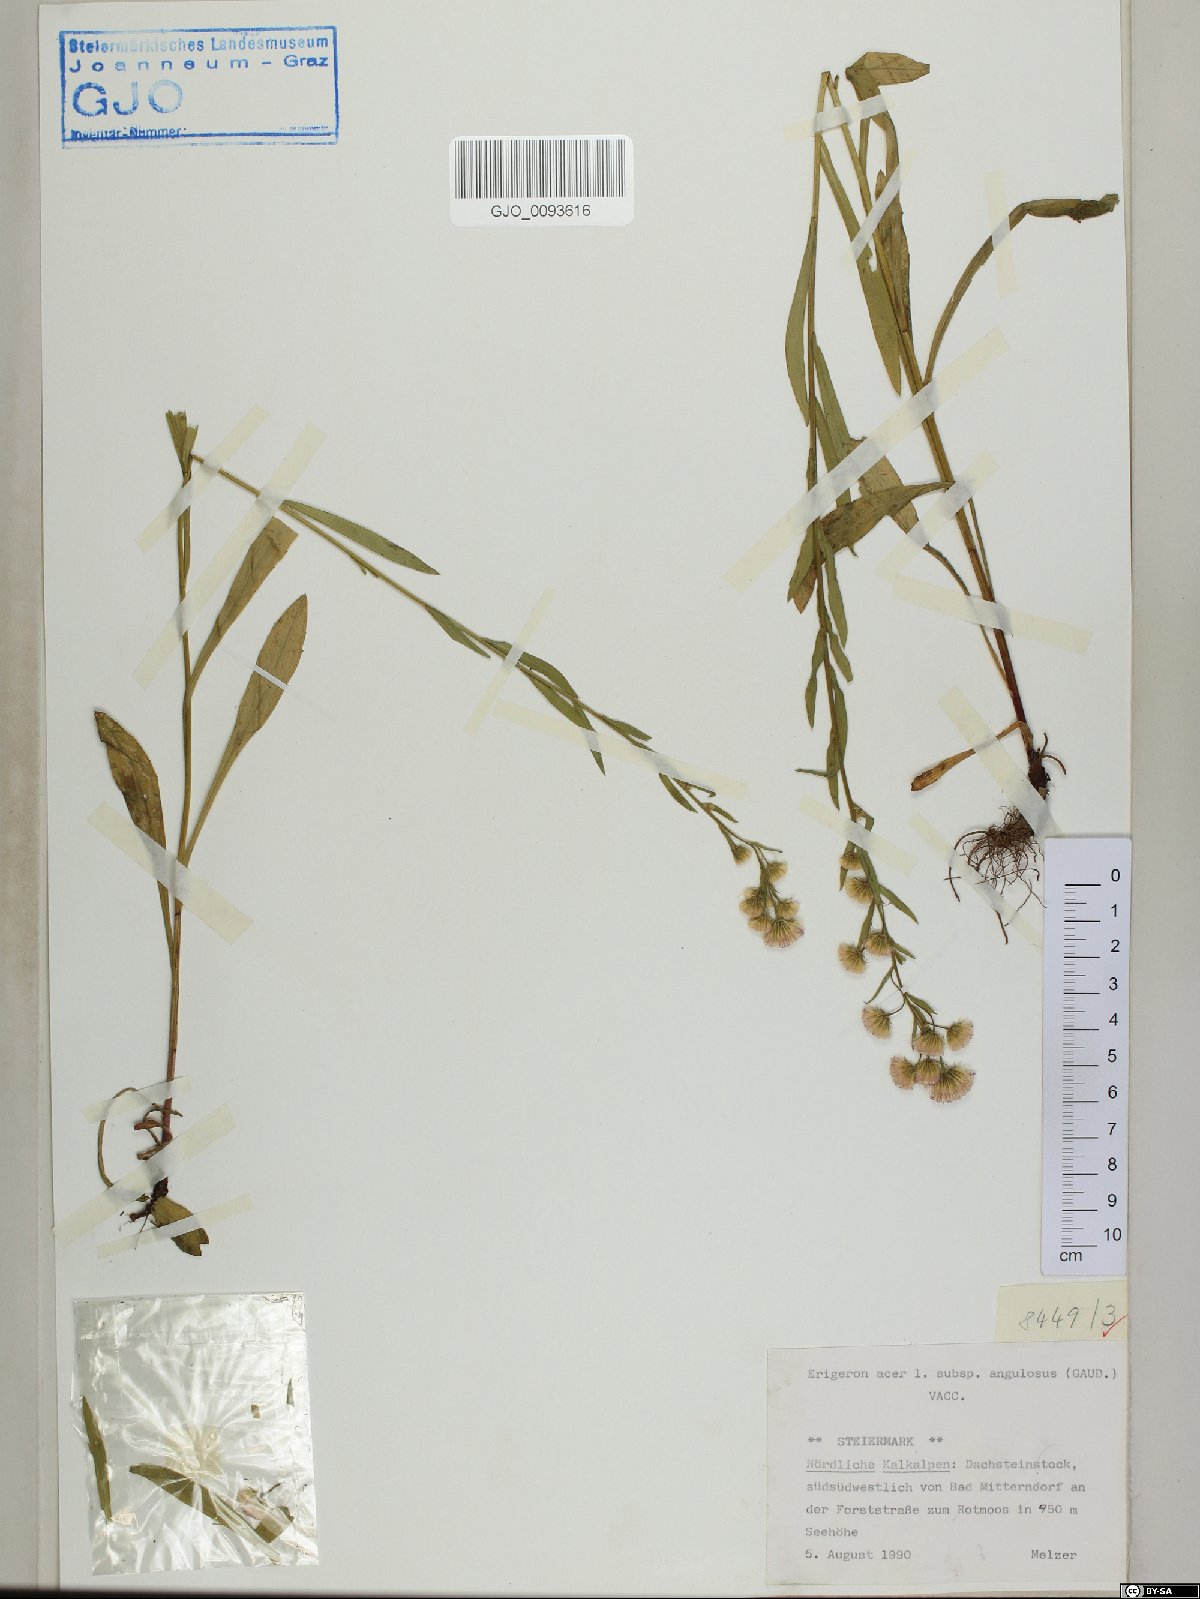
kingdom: Plantae
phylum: Tracheophyta
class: Magnoliopsida
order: Asterales
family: Asteraceae
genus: Erigeron
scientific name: Erigeron angulosus
